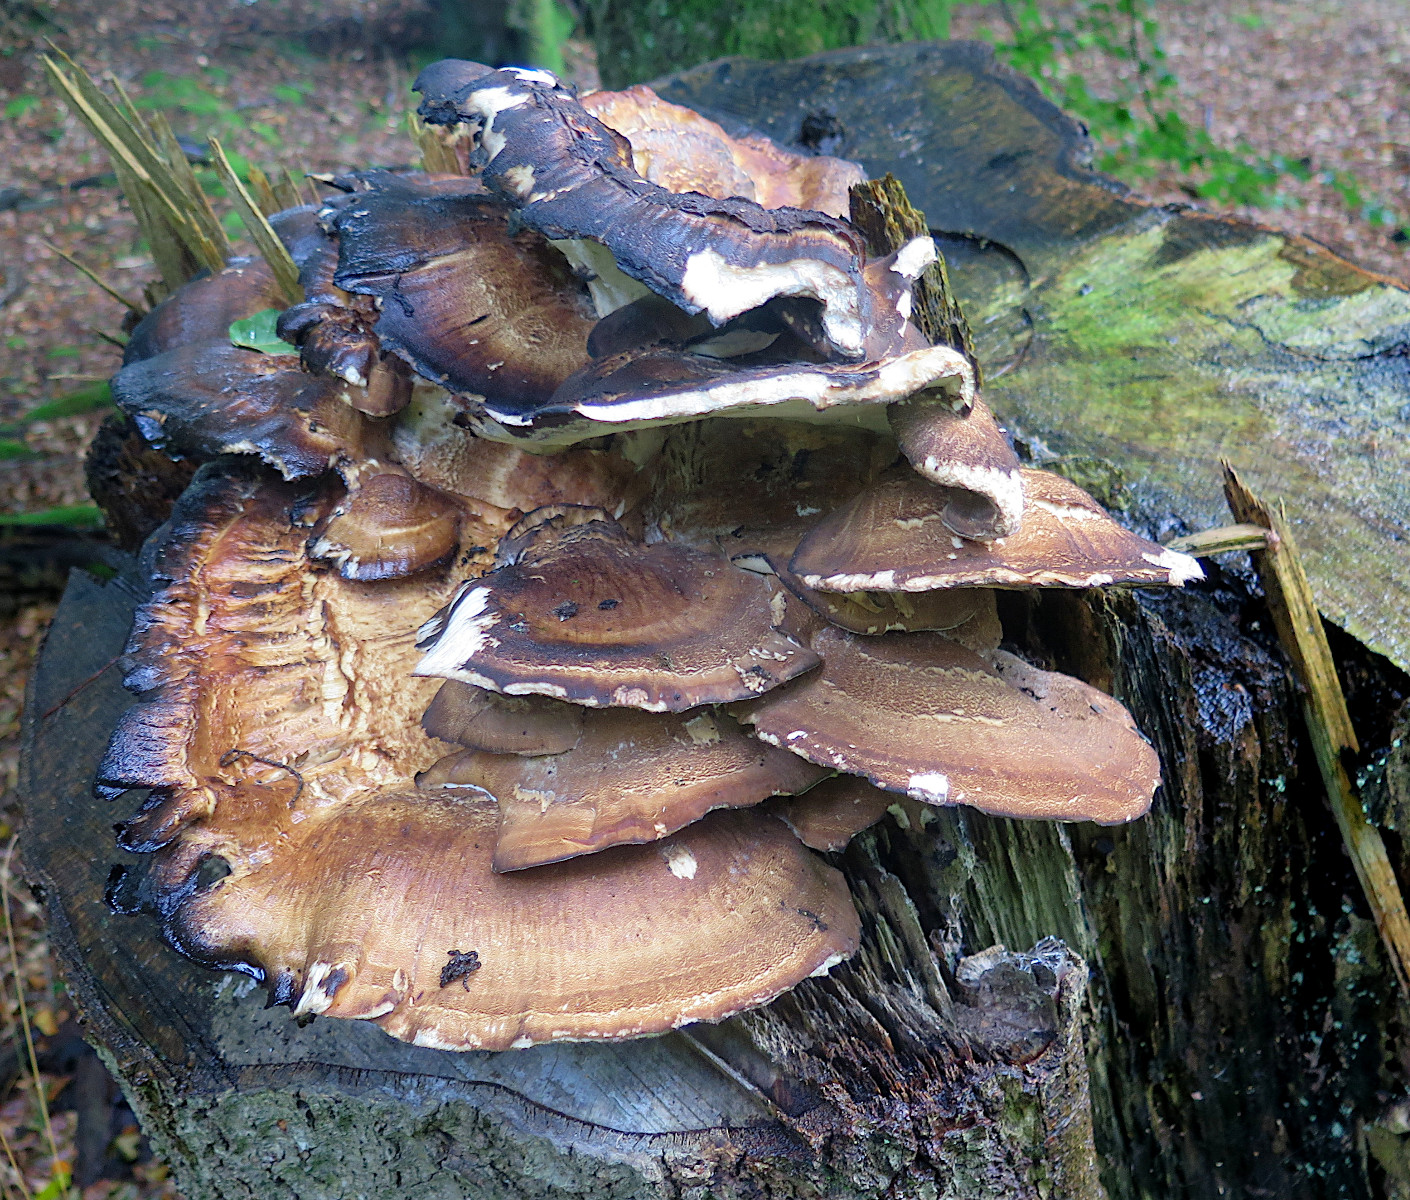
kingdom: Fungi
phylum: Basidiomycota
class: Agaricomycetes
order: Polyporales
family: Meripilaceae
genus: Meripilus
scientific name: Meripilus giganteus
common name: kæmpeporesvamp
